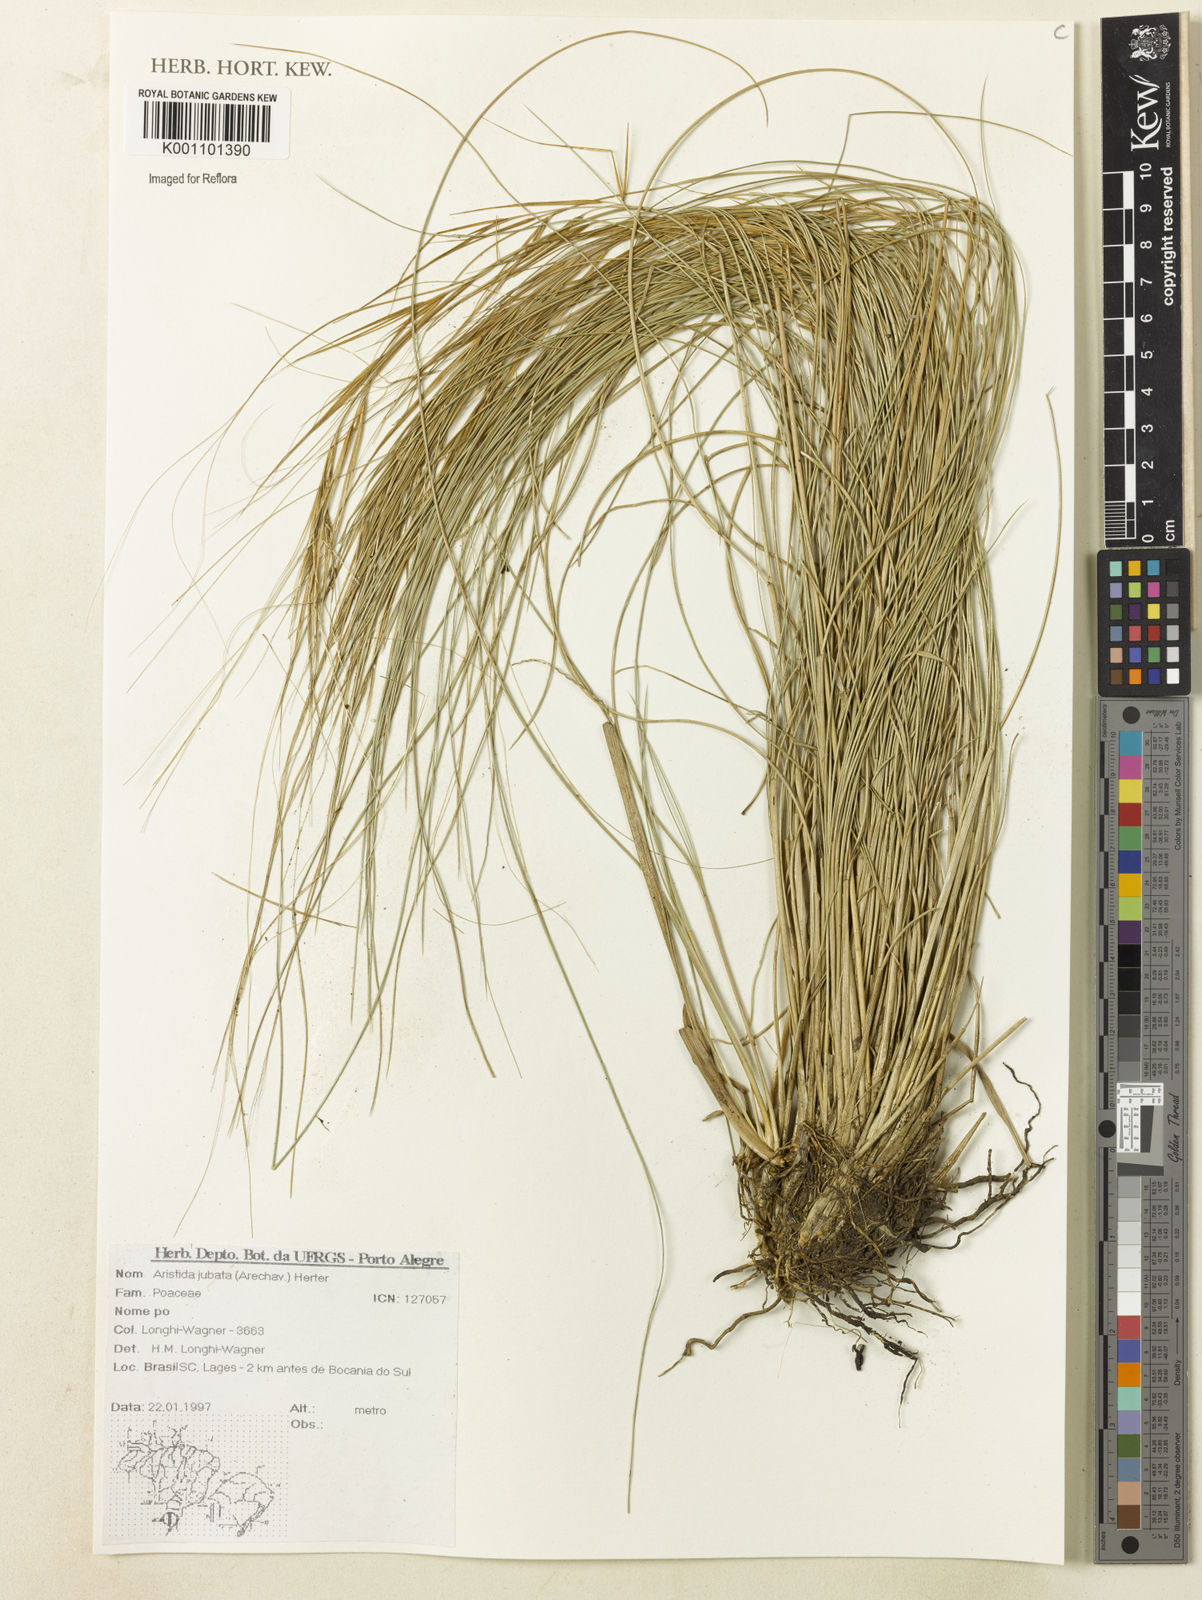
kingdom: Plantae
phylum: Tracheophyta
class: Liliopsida
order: Poales
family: Poaceae
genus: Aristida
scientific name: Aristida jubata
